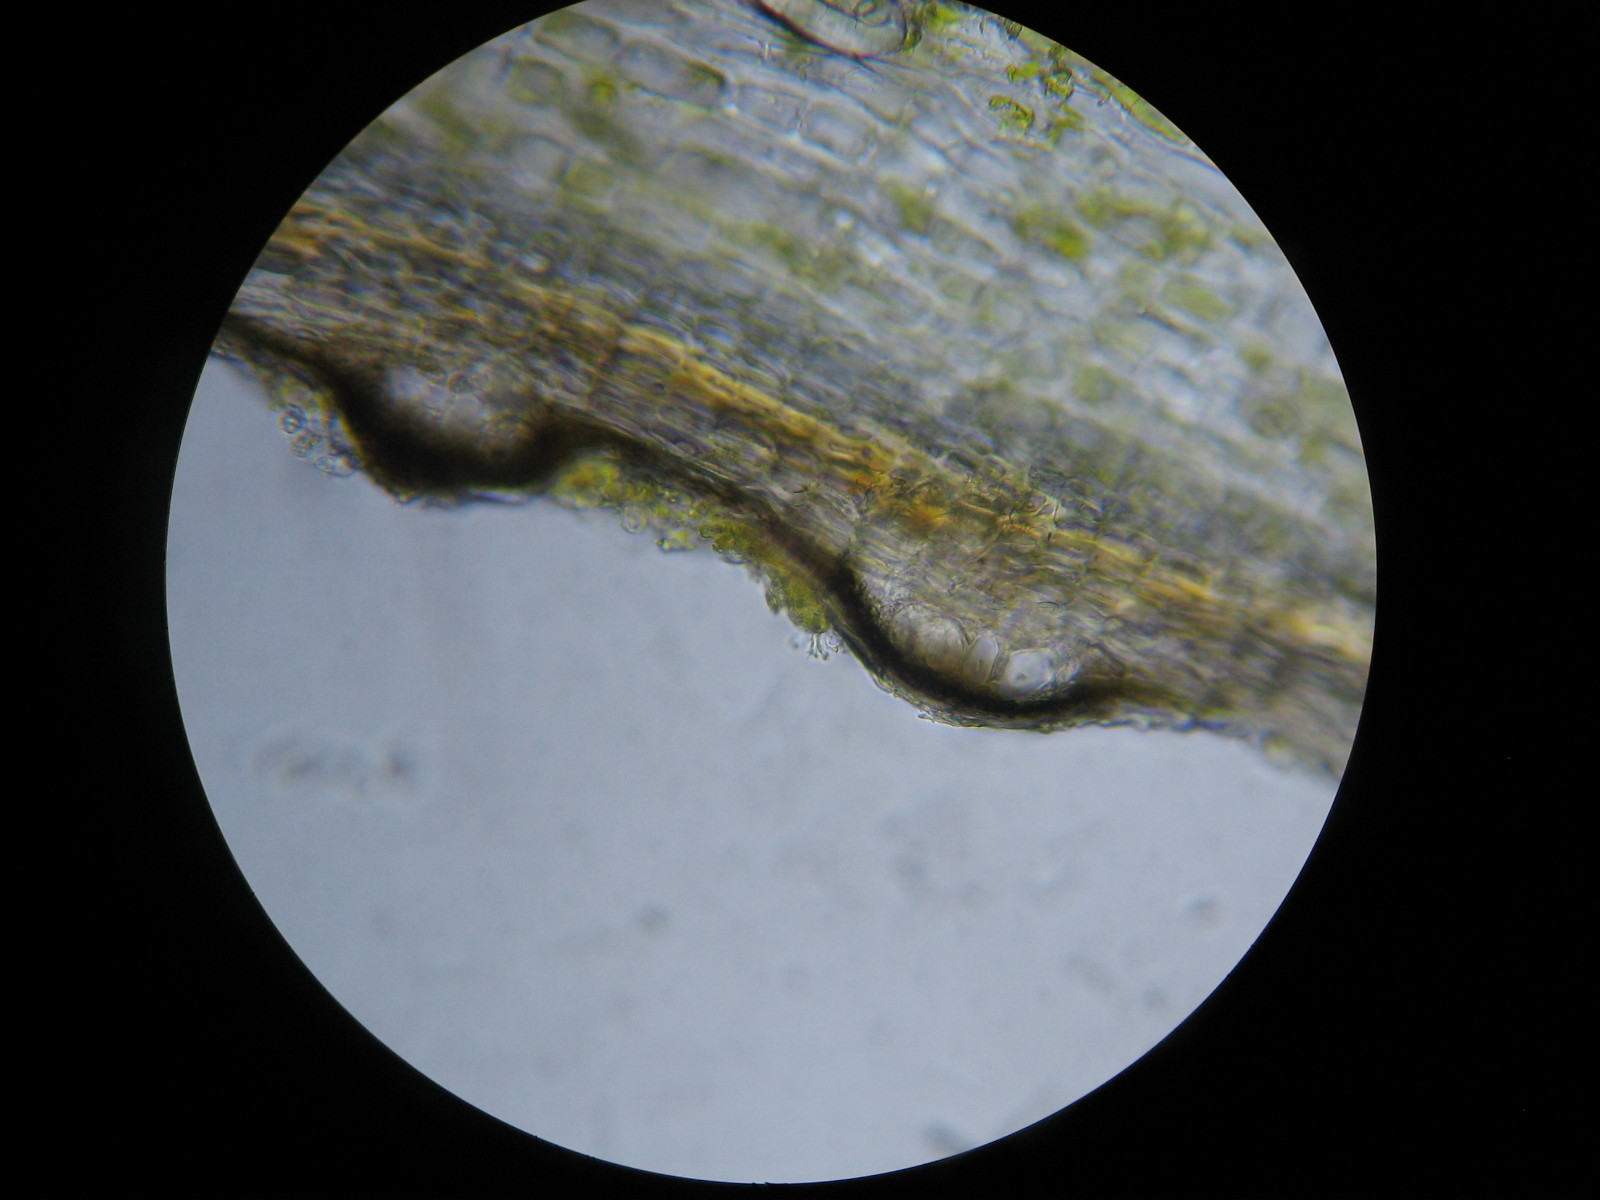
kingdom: Fungi
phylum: Ascomycota
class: Dothideomycetes
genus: Cyrtidula
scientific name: Cyrtidula quercus
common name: ege-barkplet
